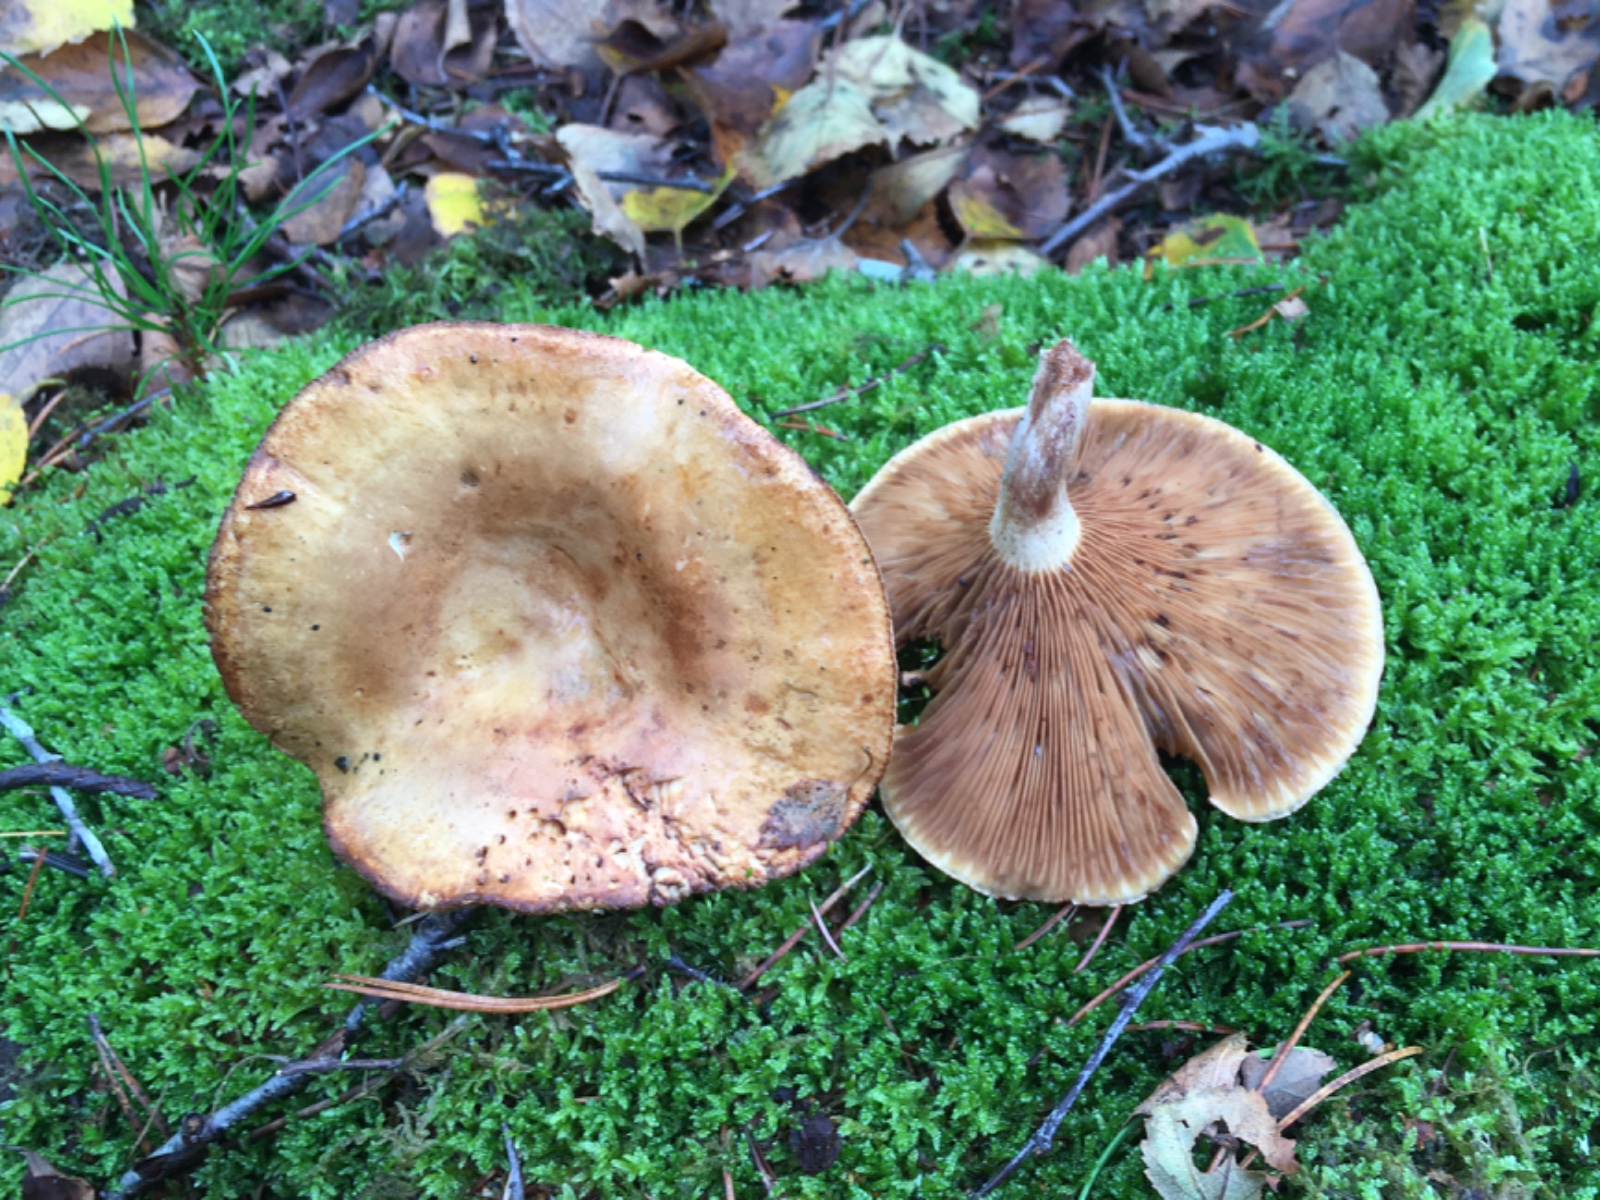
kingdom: Fungi
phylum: Basidiomycota
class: Agaricomycetes
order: Boletales
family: Paxillaceae
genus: Paxillus
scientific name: Paxillus involutus
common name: almindelig netbladhat
